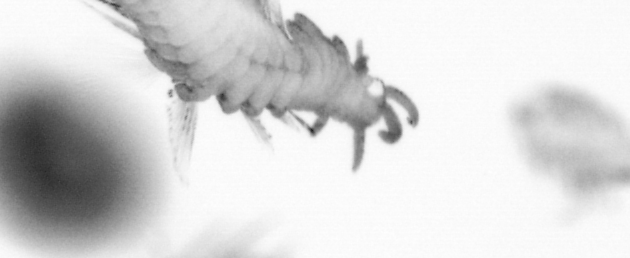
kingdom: Animalia
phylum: Annelida
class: Polychaeta
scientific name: Polychaeta
